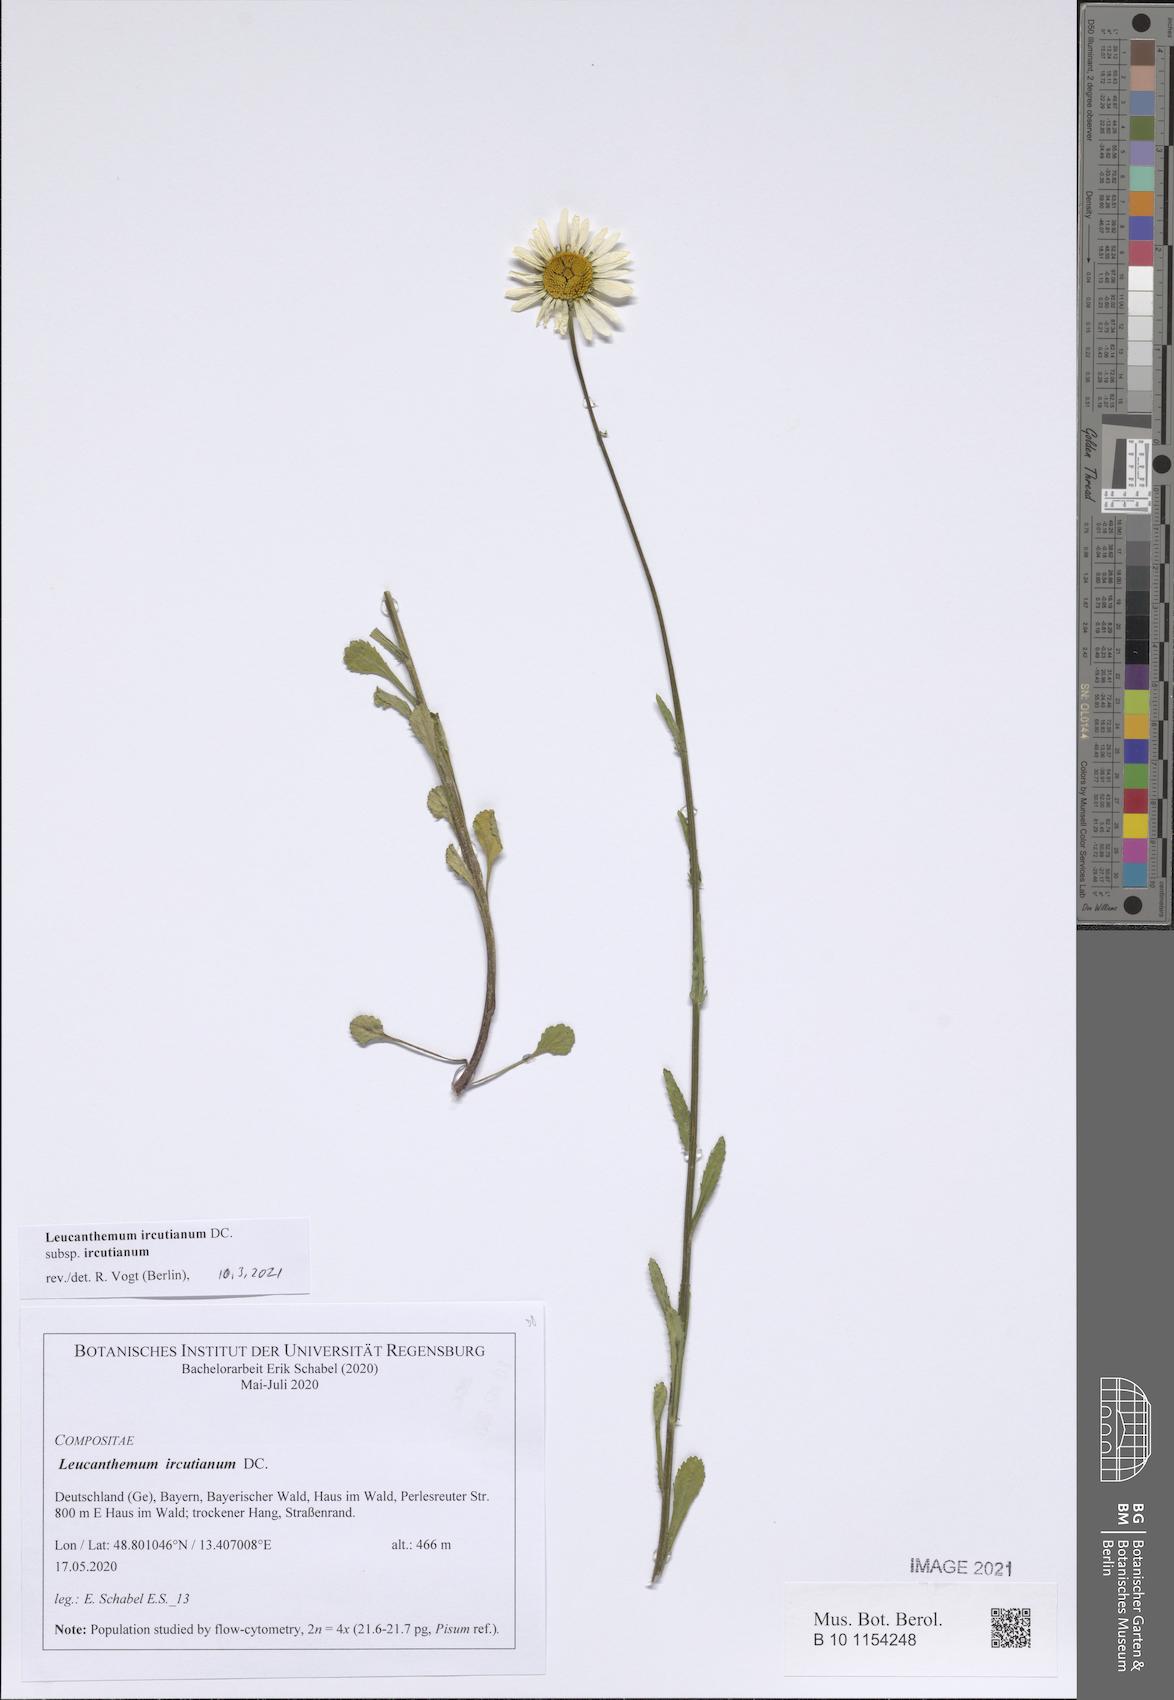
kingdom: Plantae
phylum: Tracheophyta
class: Magnoliopsida
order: Asterales
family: Asteraceae
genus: Leucanthemum
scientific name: Leucanthemum ircutianum
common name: Daisy
